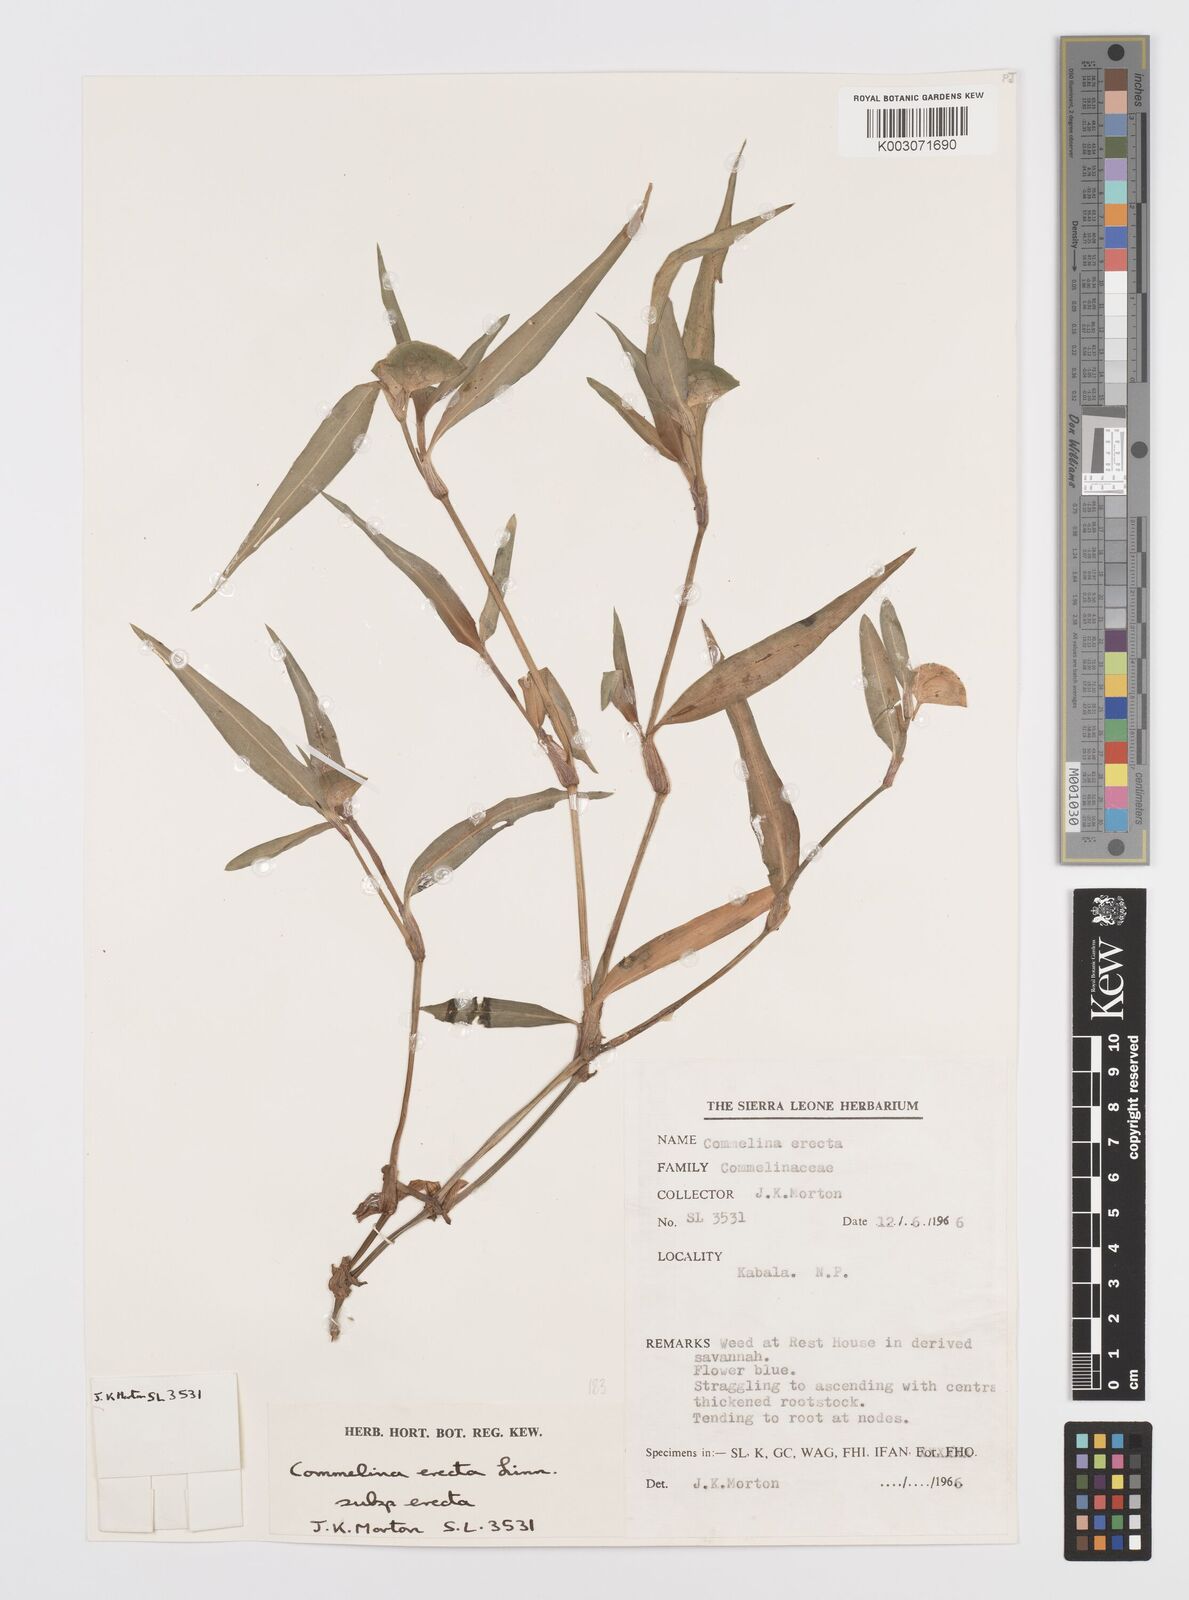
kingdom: Plantae
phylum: Tracheophyta
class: Liliopsida
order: Commelinales
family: Commelinaceae
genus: Commelina
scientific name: Commelina erecta
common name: Blousel blommetjie
